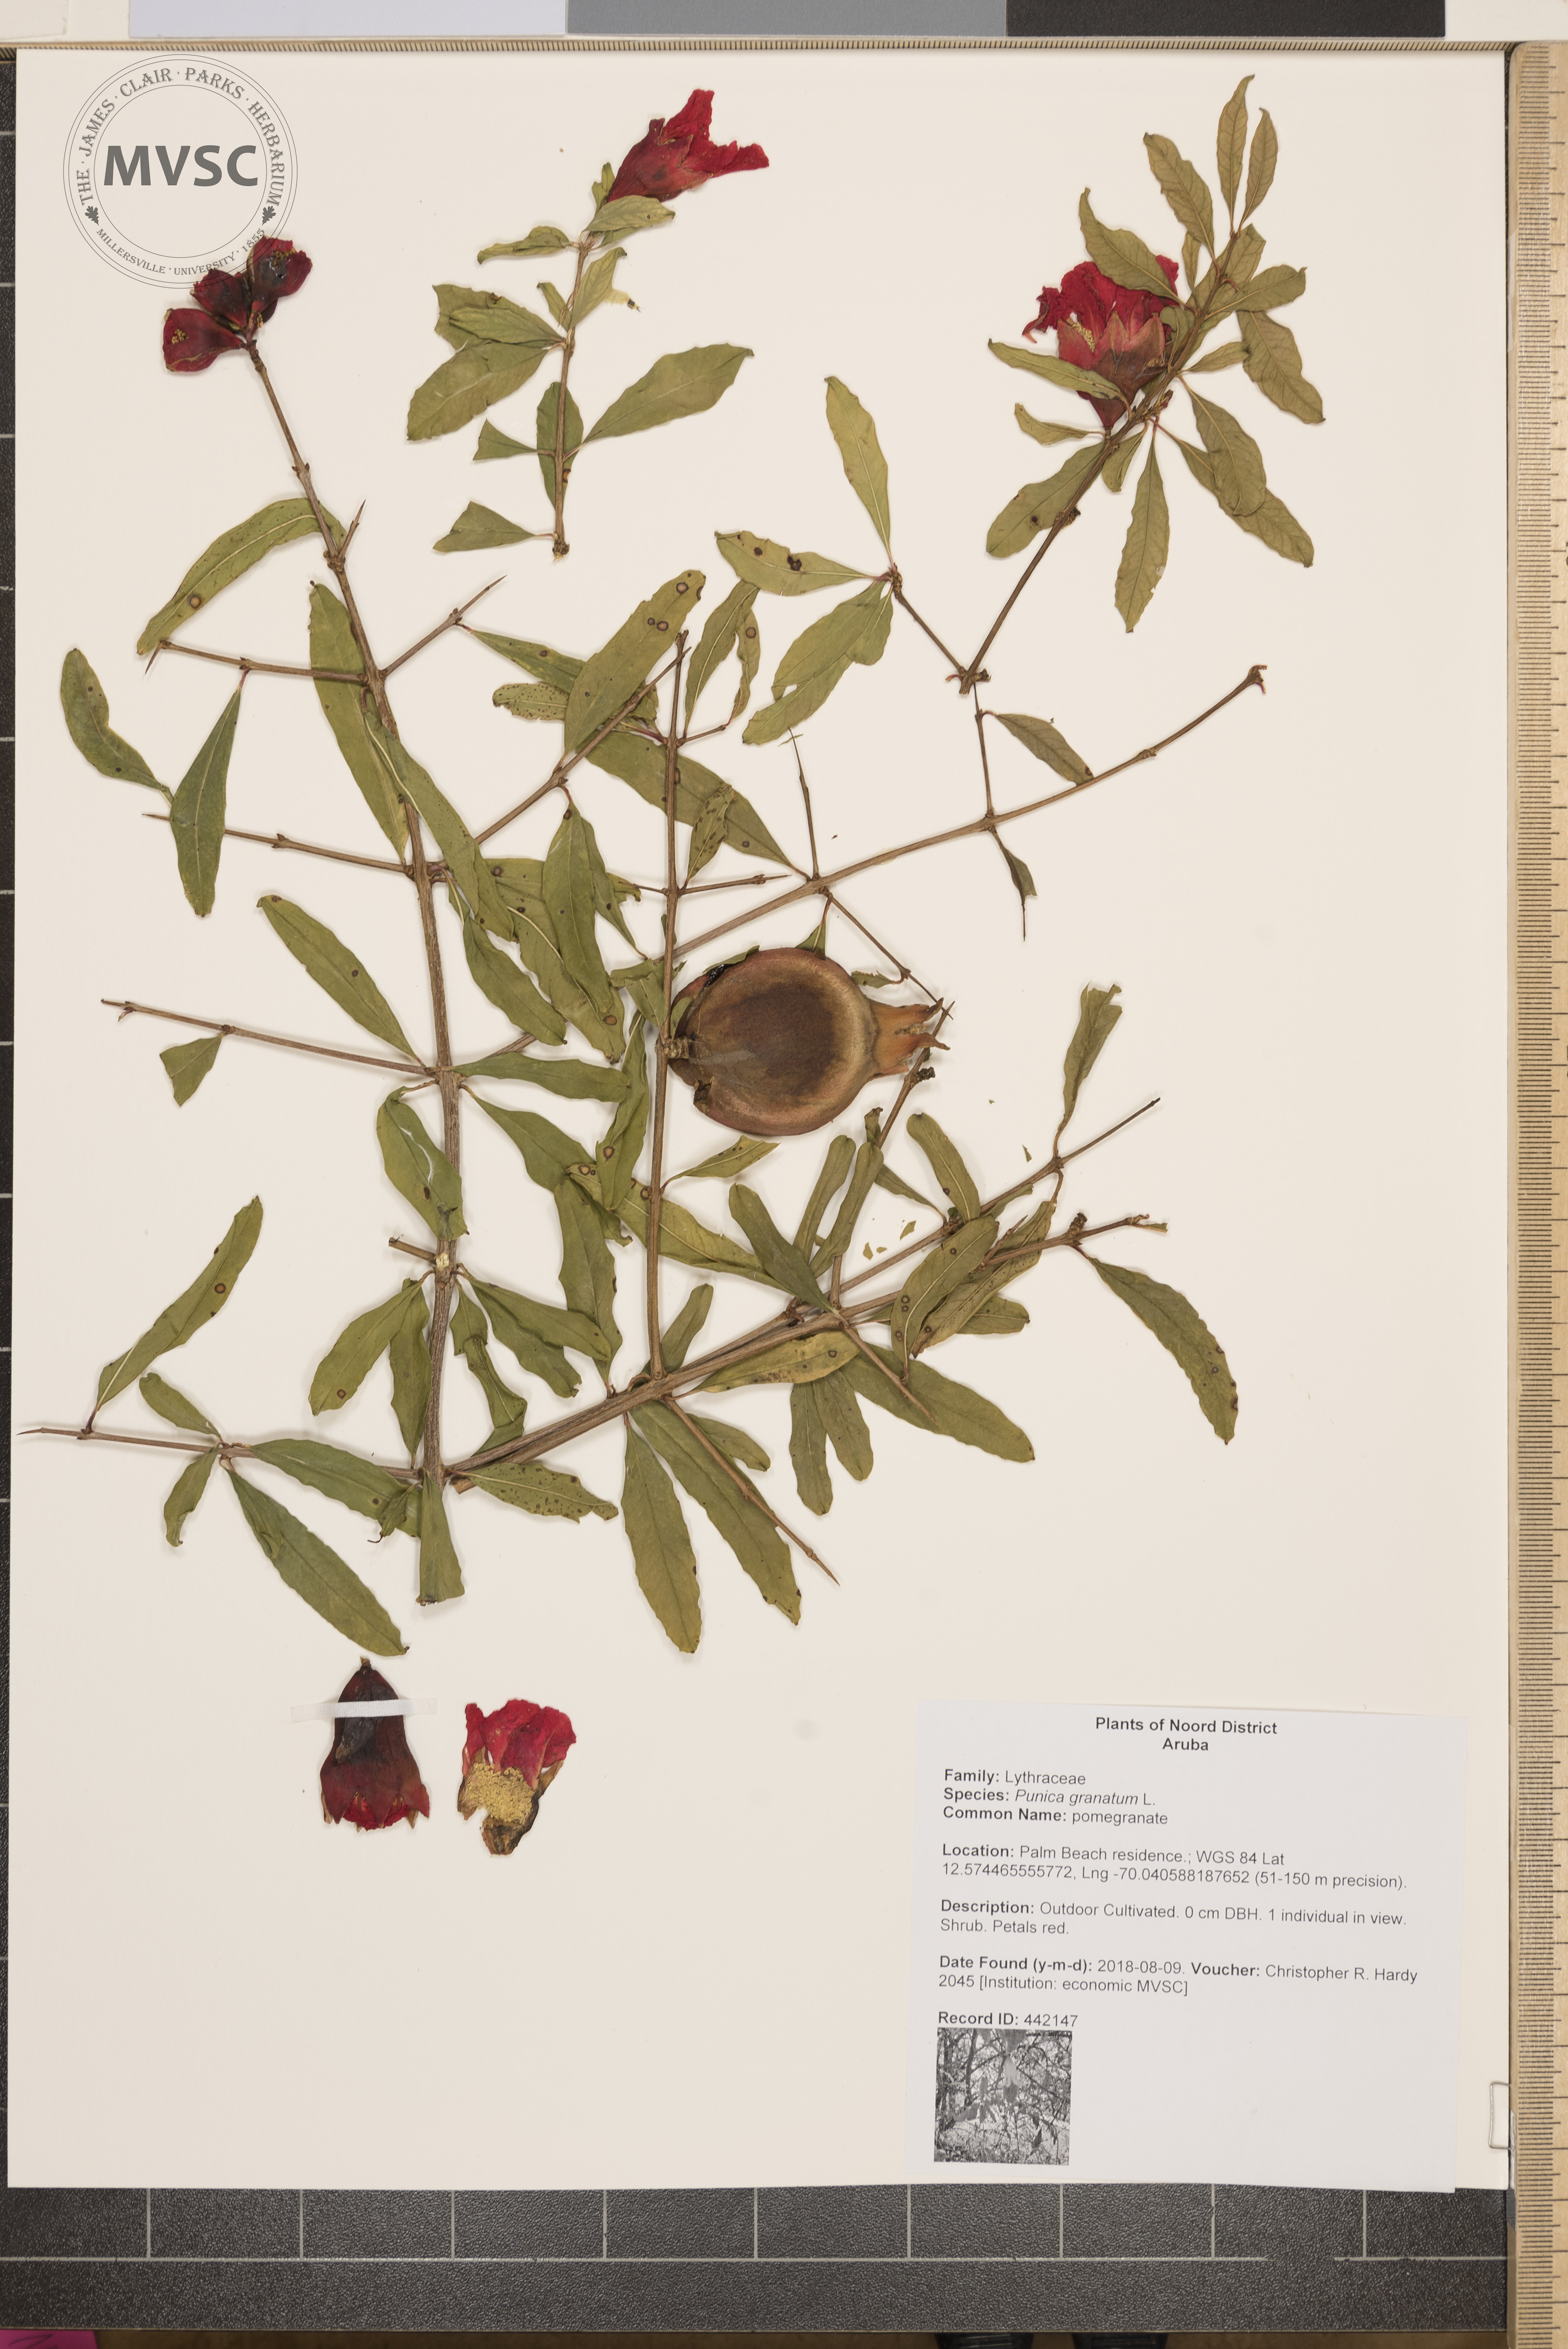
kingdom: Plantae
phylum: Tracheophyta
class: Magnoliopsida
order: Myrtales
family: Lythraceae
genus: Punica
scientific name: Punica granatum
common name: pomegranate
